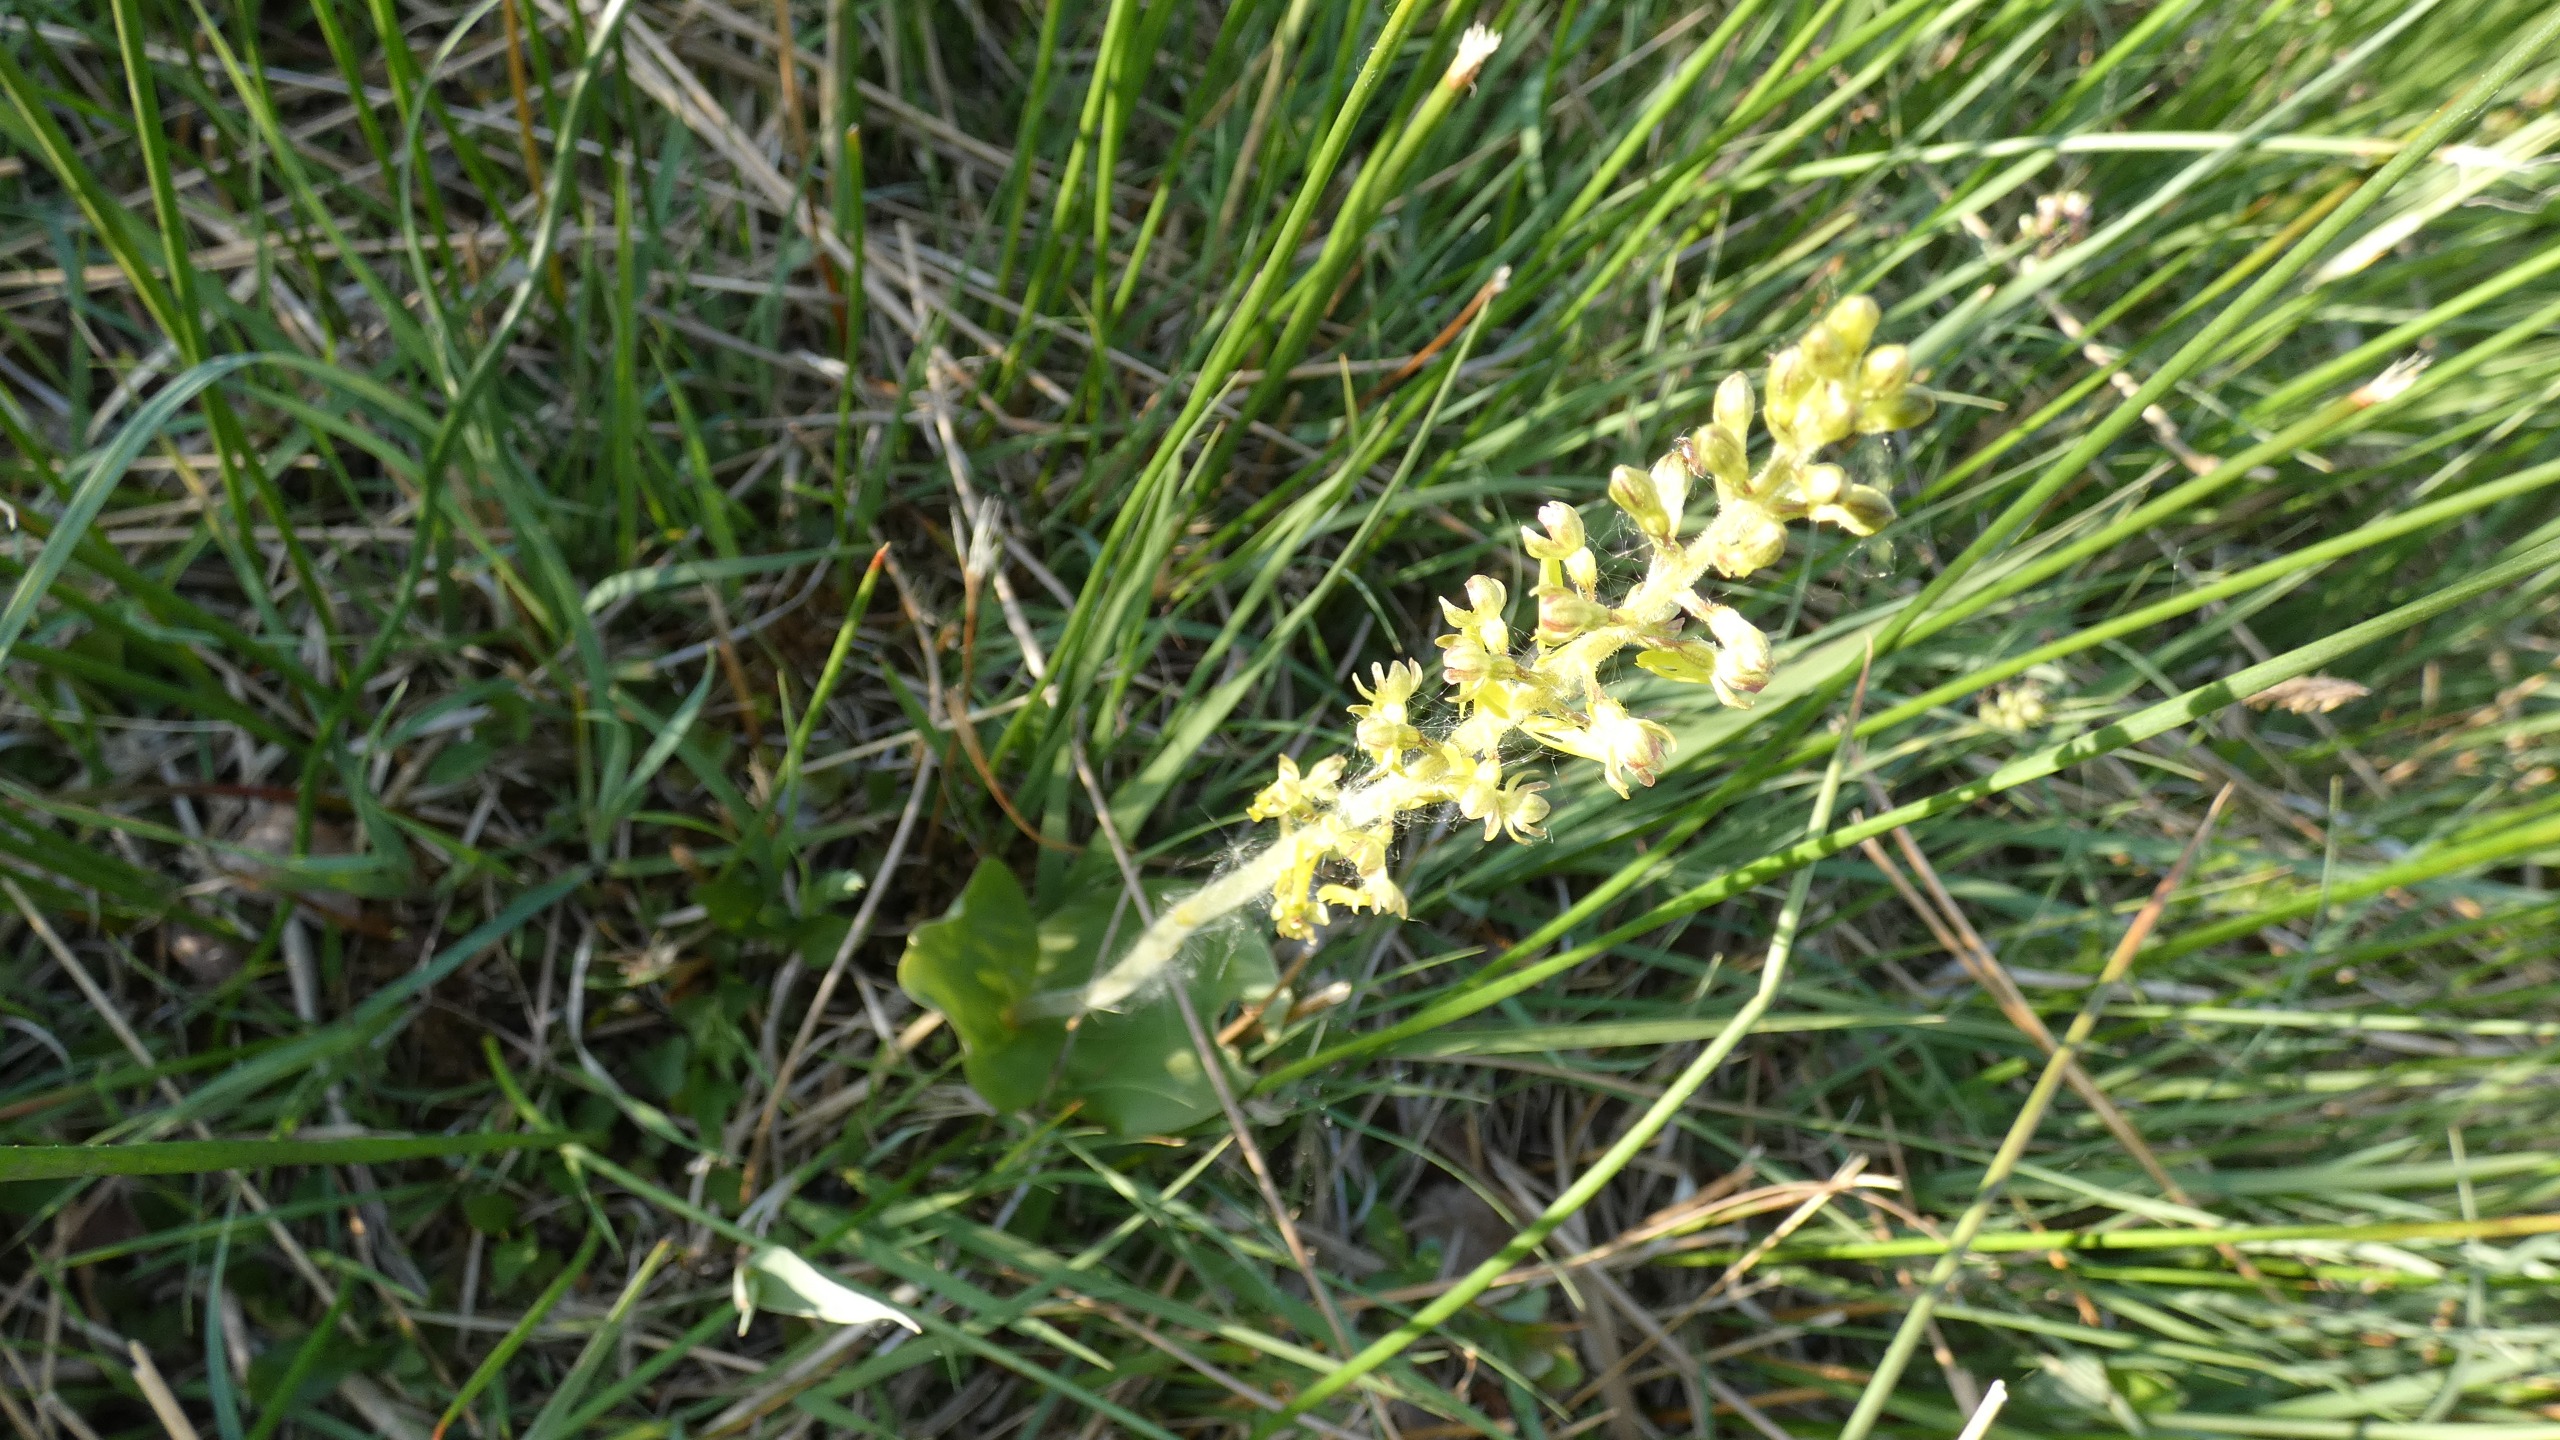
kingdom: Plantae
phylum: Tracheophyta
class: Liliopsida
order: Asparagales
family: Orchidaceae
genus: Neottia
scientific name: Neottia ovata
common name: Ægbladet fliglæbe
